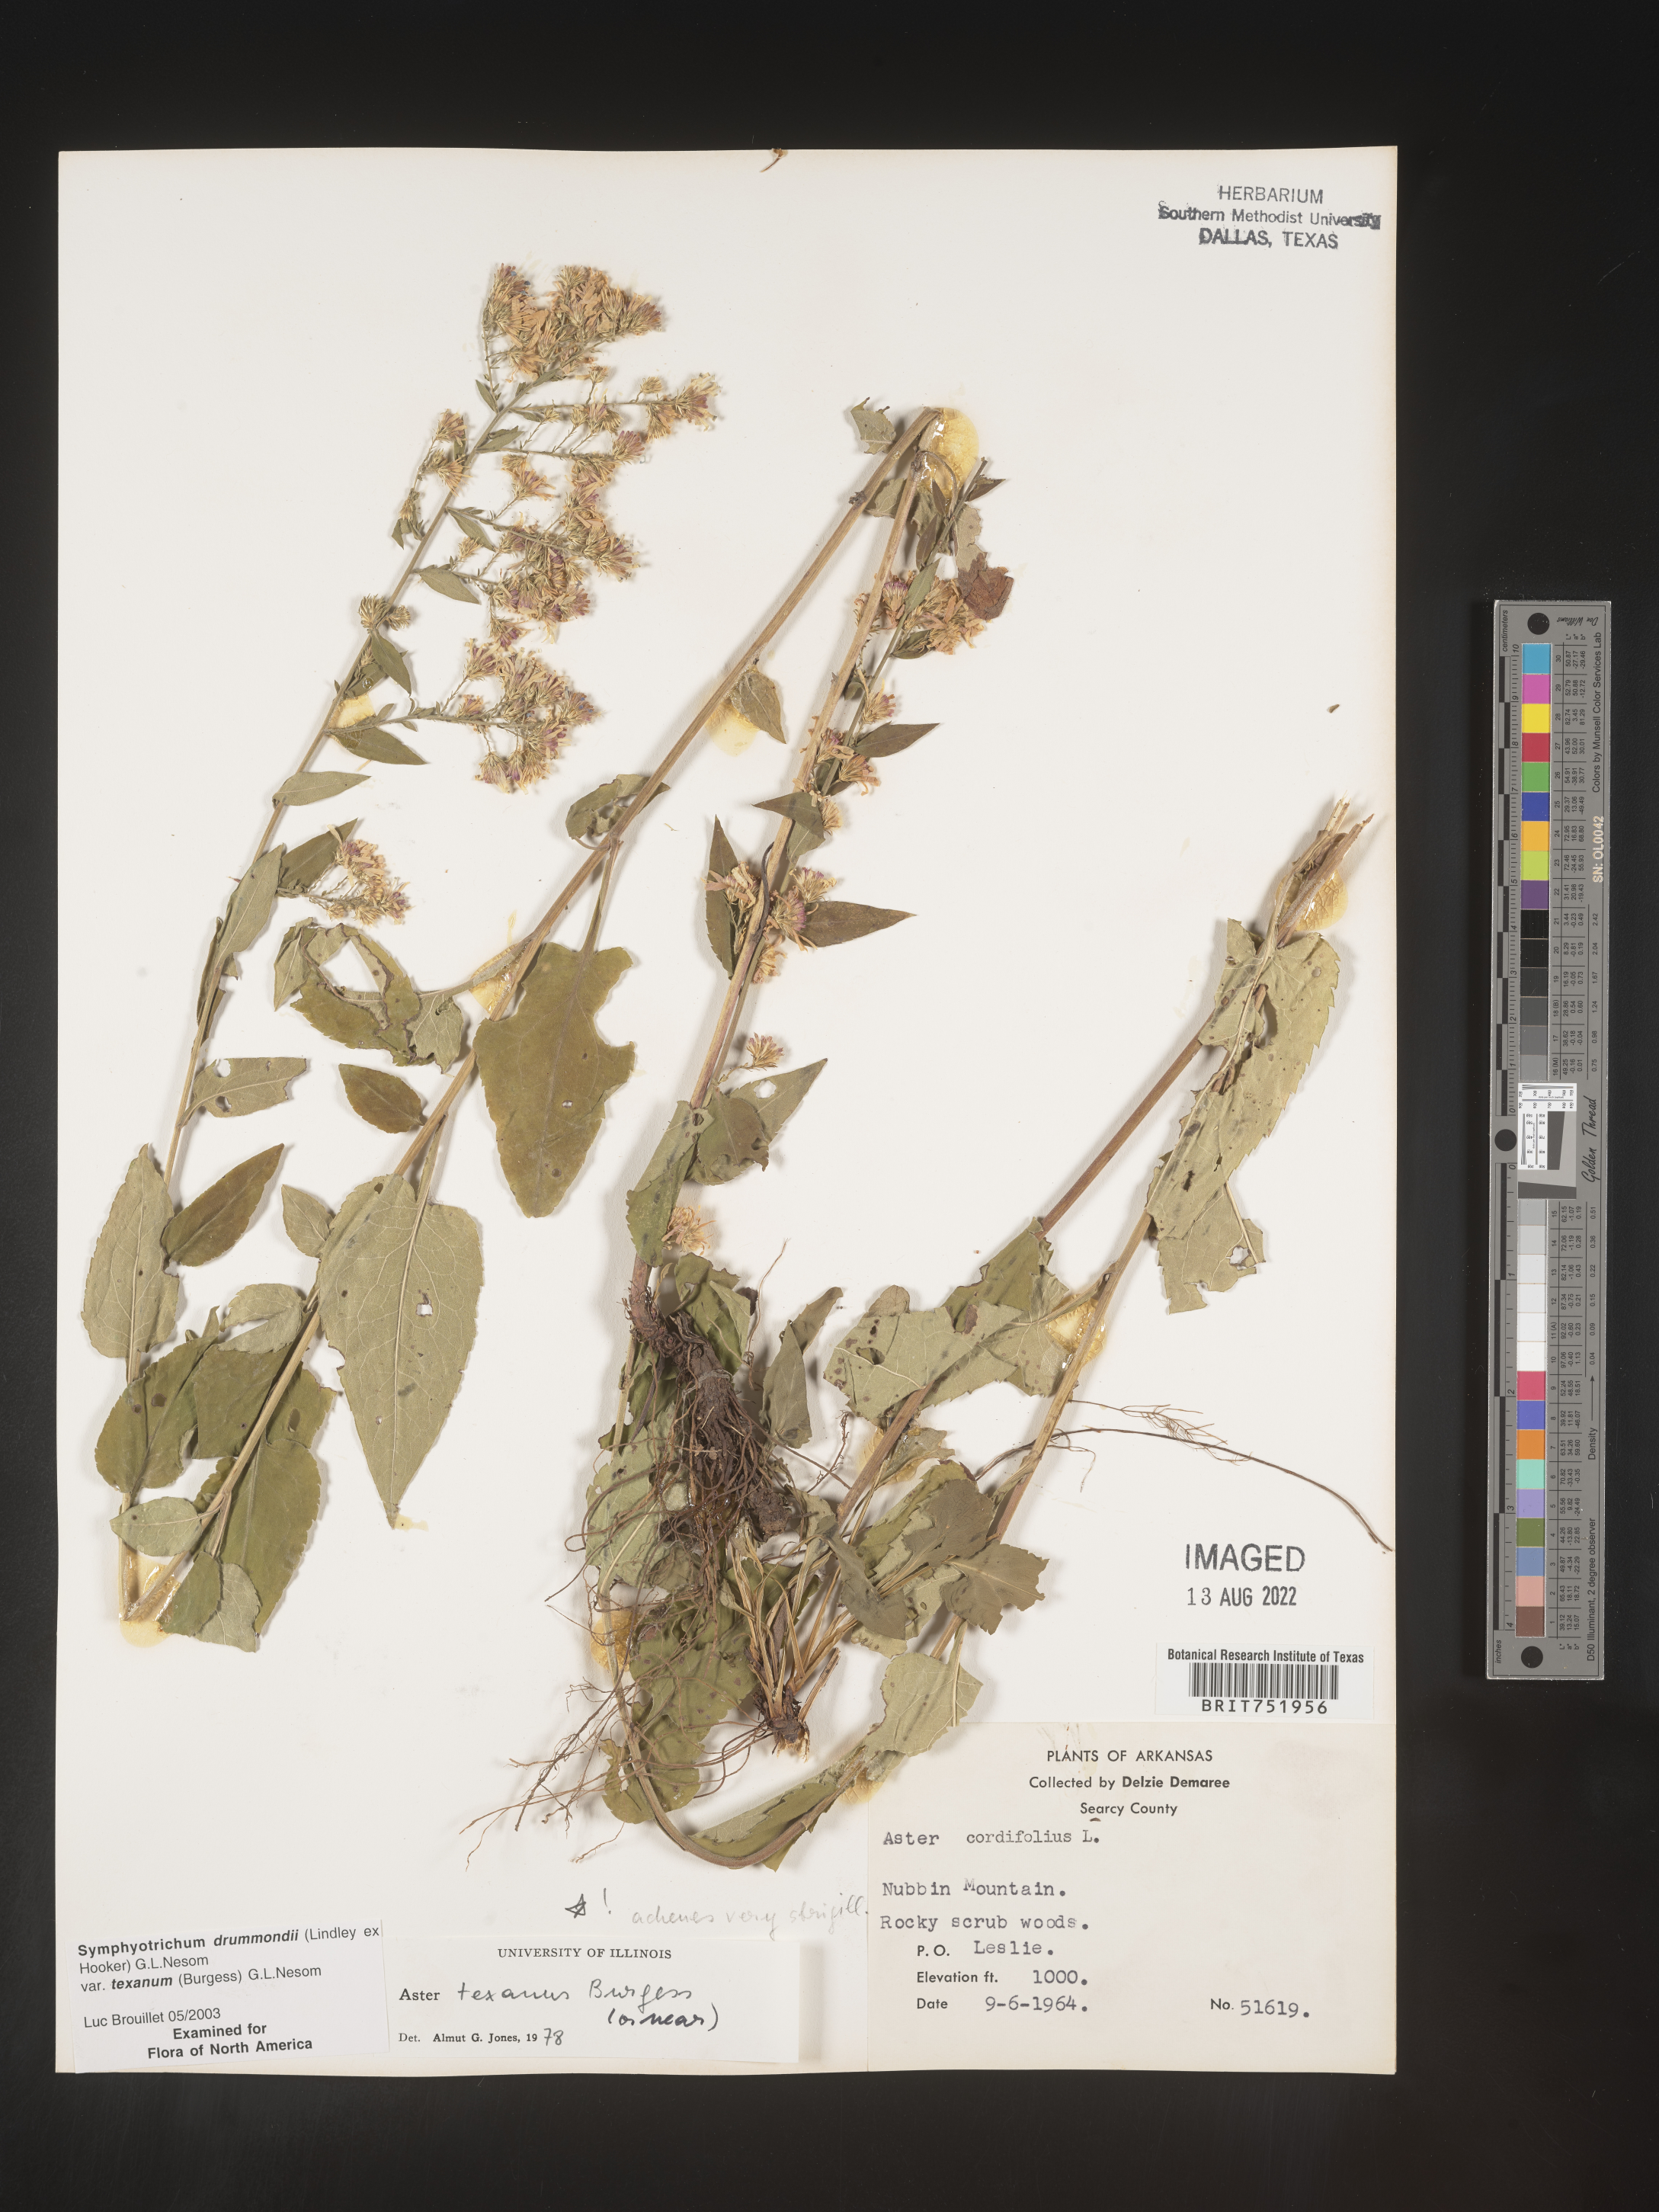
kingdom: Plantae
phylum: Tracheophyta
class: Magnoliopsida
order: Asterales
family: Asteraceae
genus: Symphyotrichum
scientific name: Symphyotrichum drummondii
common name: Drummond's aster
